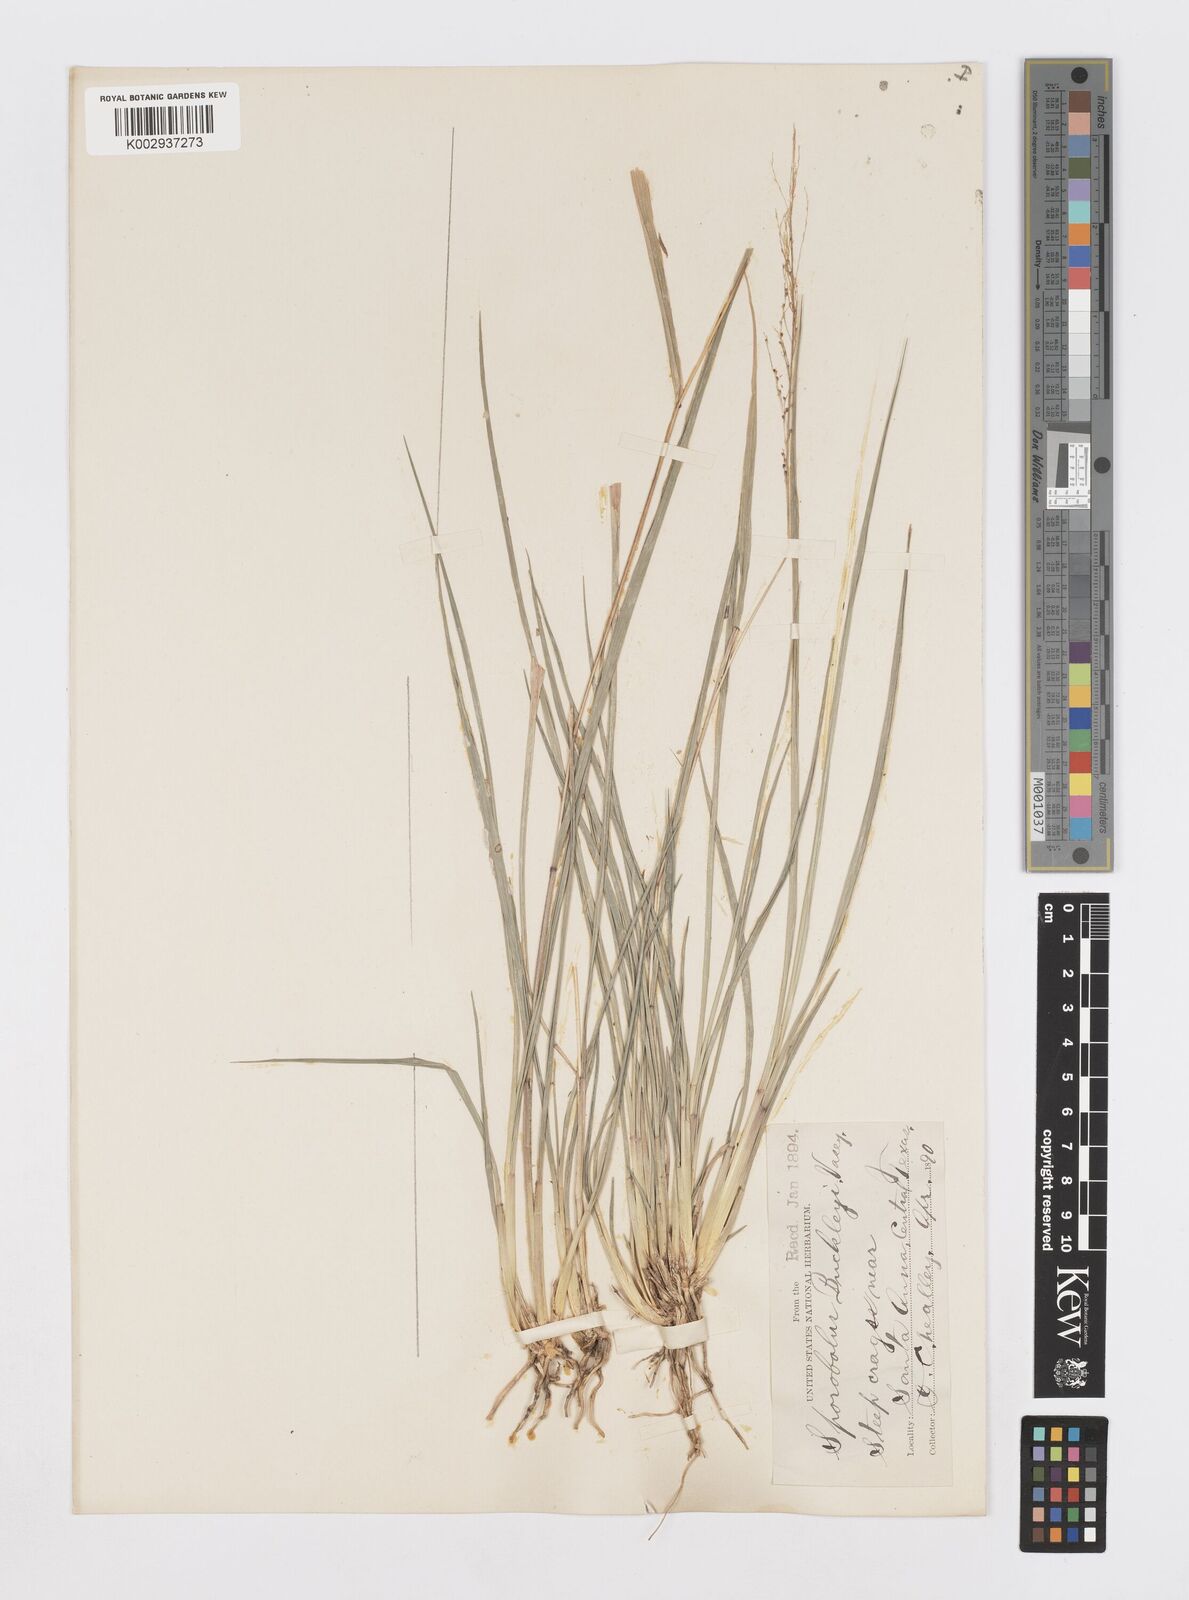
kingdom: Plantae
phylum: Tracheophyta
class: Liliopsida
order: Poales
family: Poaceae
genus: Sporobolus
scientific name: Sporobolus buckleyi
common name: Buckley's dropseed
